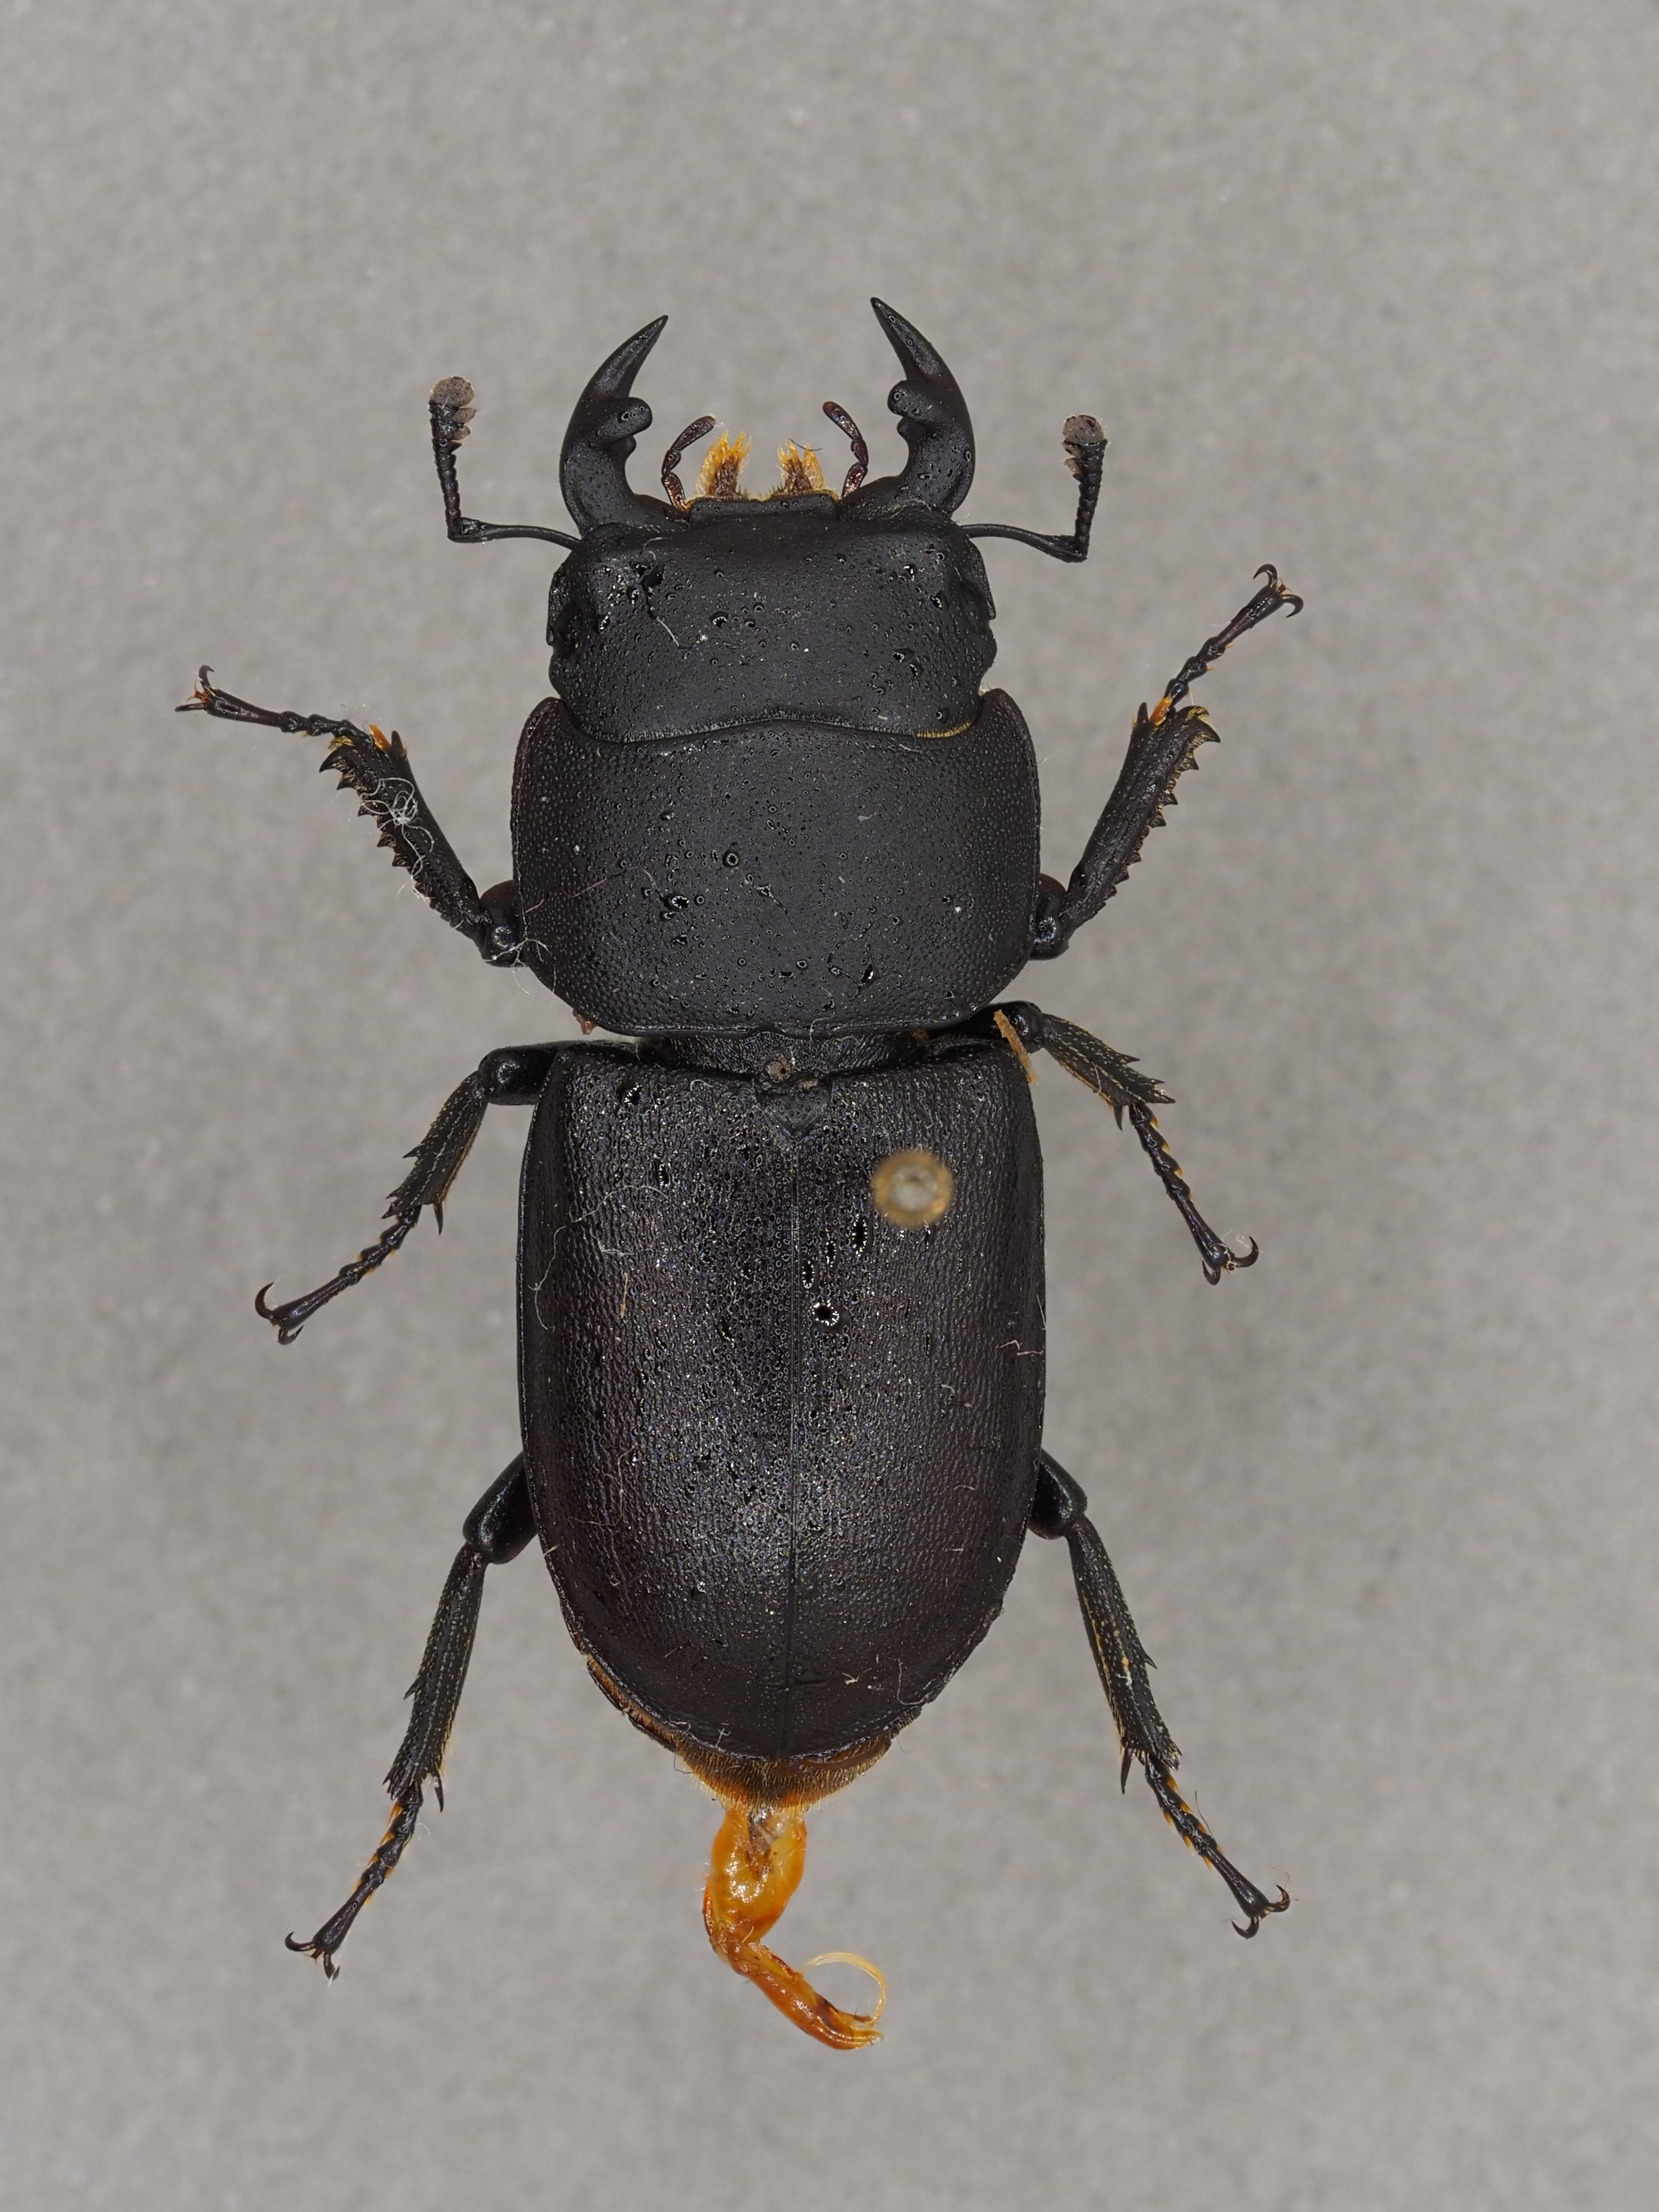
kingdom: Animalia
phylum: Arthropoda
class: Insecta
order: Coleoptera
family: Lucanidae
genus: Dorcus
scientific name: Dorcus parallelipipedus
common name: Lesser stag beetle
